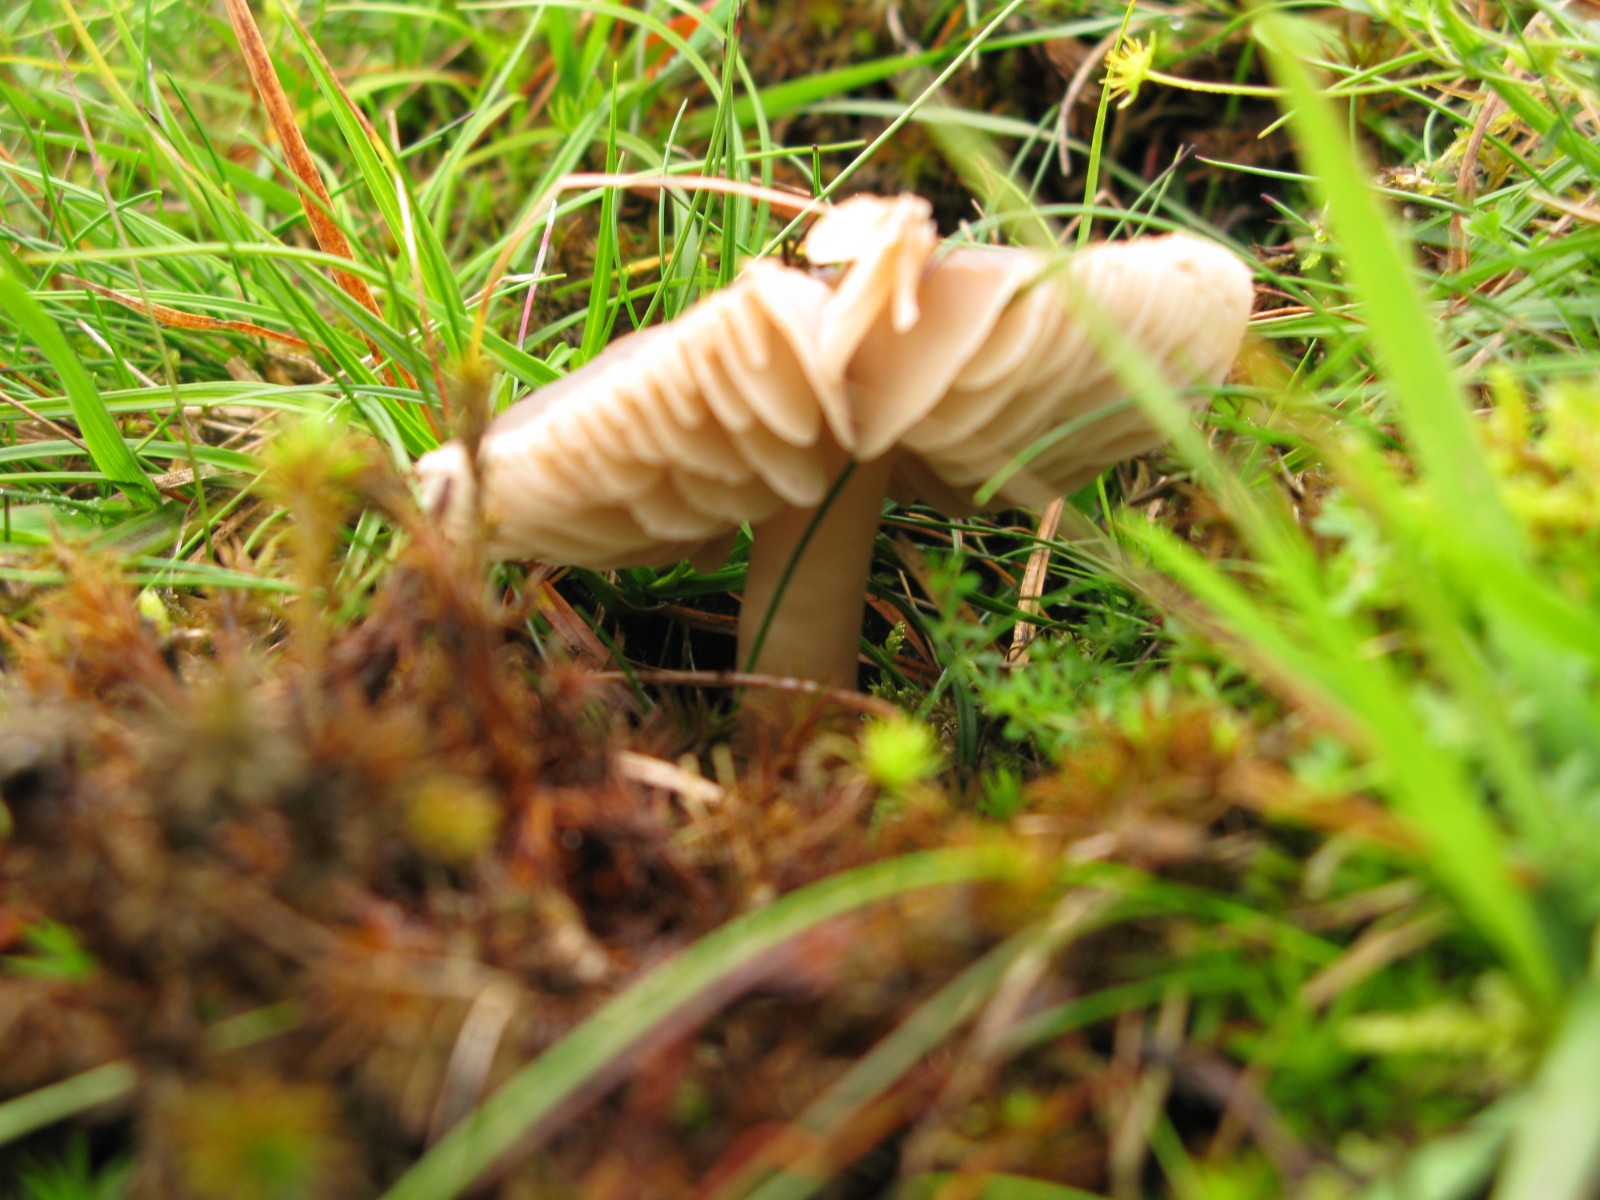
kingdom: Fungi
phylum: Basidiomycota
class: Agaricomycetes
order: Agaricales
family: Hygrophoraceae
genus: Neohygrocybe
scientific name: Neohygrocybe nitrata
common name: stinkende vokshat
